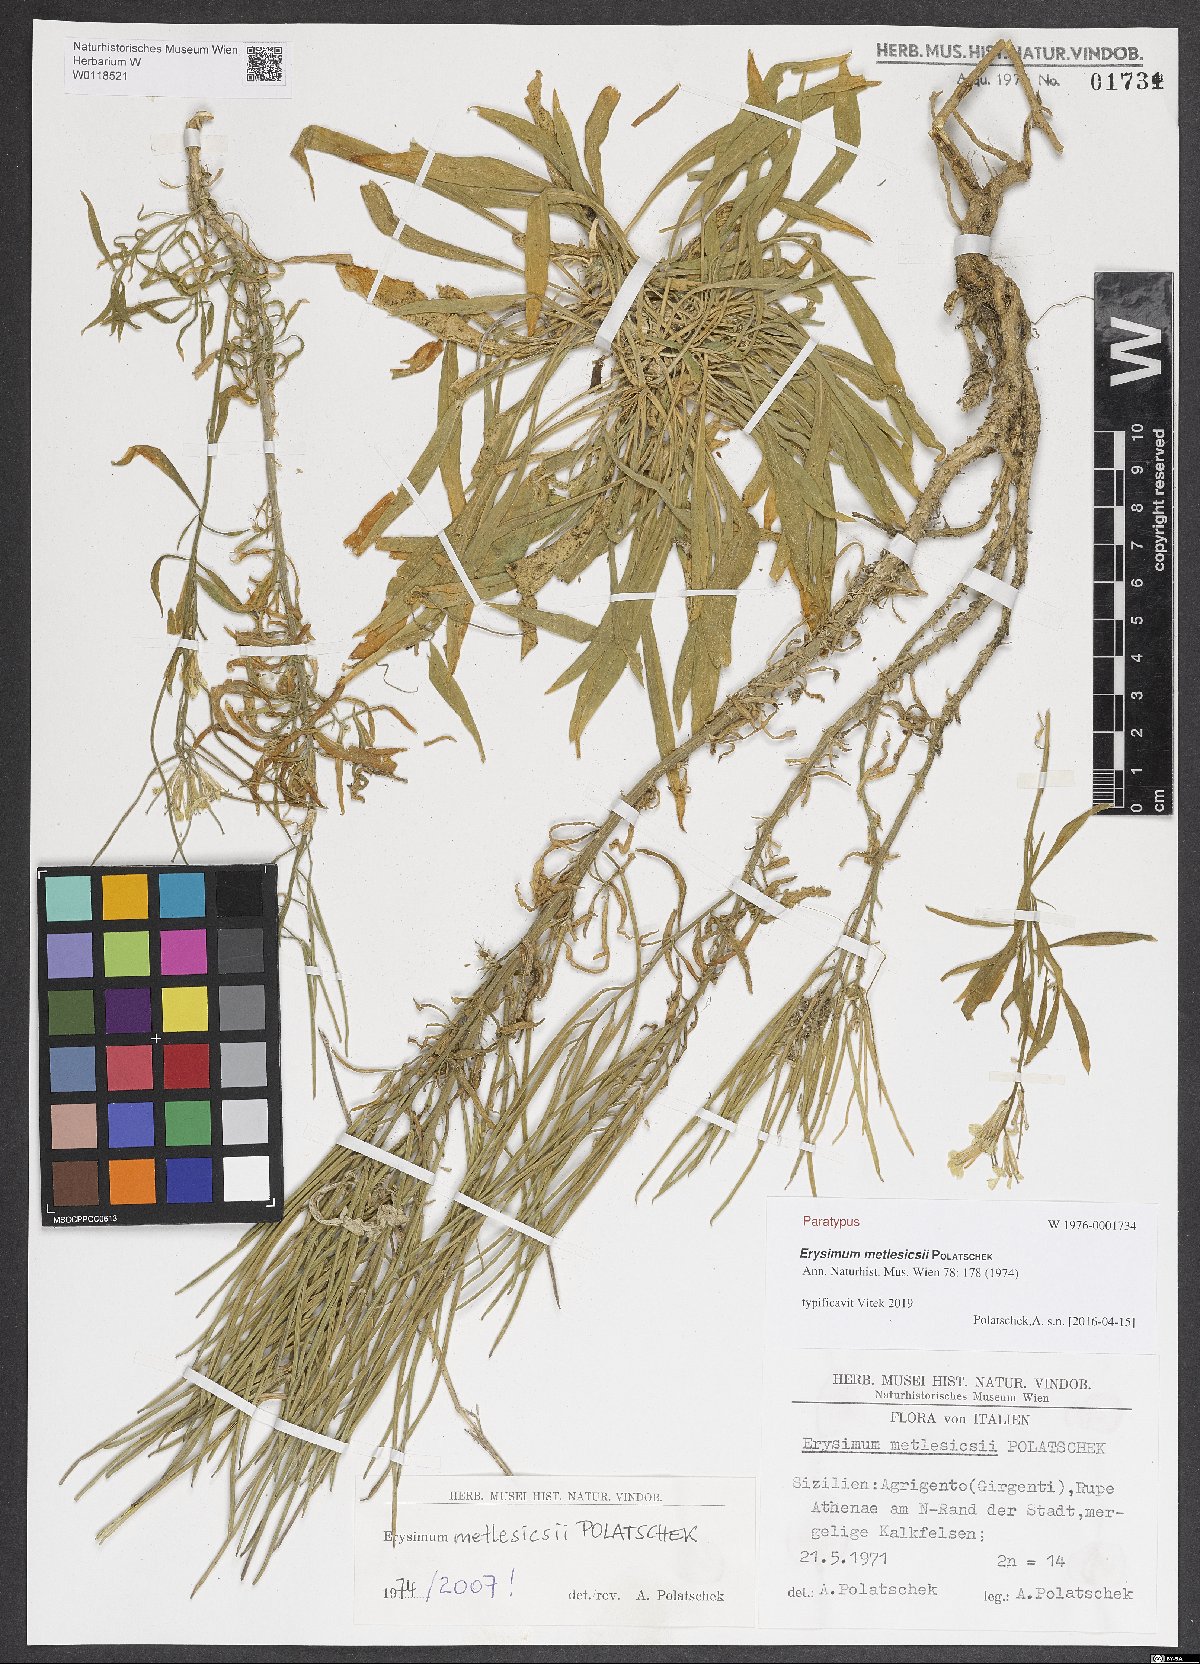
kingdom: Plantae
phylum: Tracheophyta
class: Magnoliopsida
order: Brassicales
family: Brassicaceae
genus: Erysimum
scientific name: Erysimum metlesicsii
